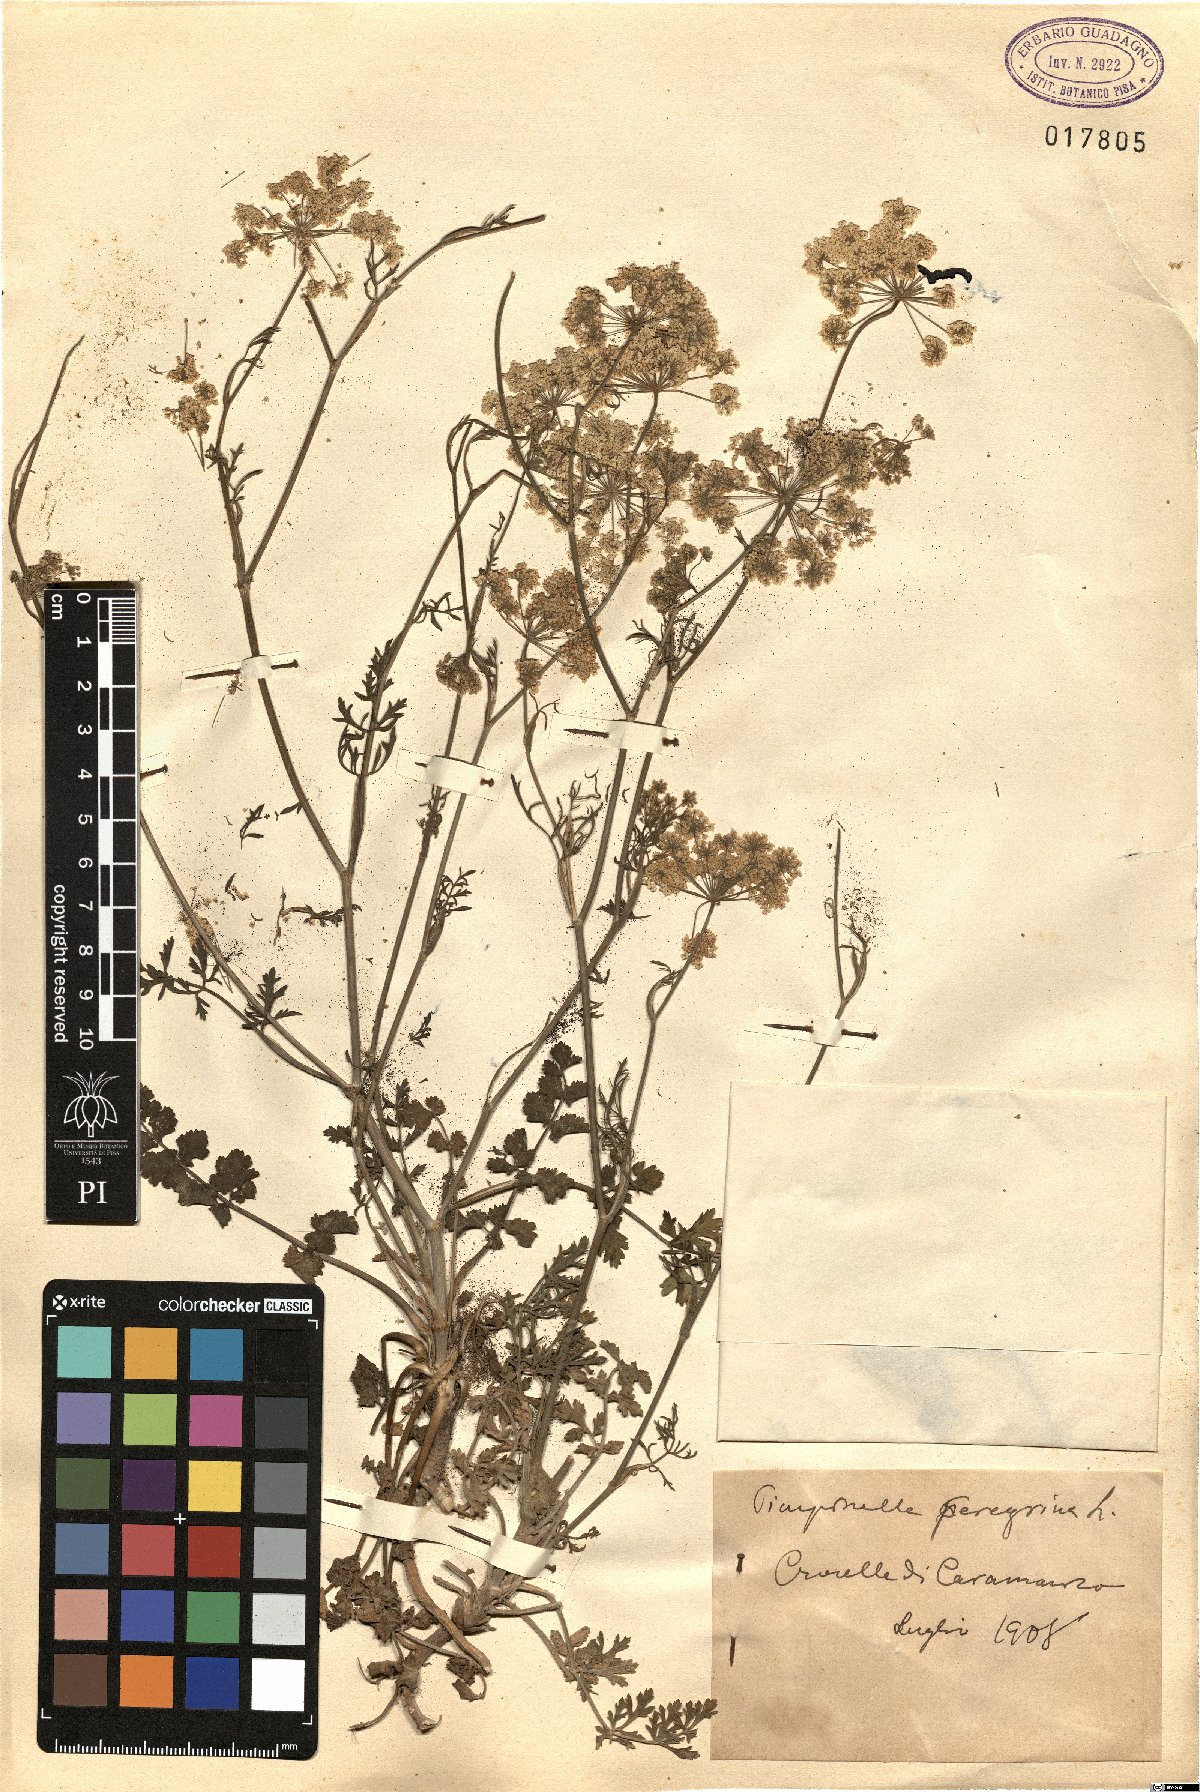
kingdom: Plantae
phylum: Tracheophyta
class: Magnoliopsida
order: Apiales
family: Apiaceae
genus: Pimpinella
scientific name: Pimpinella peregrina
